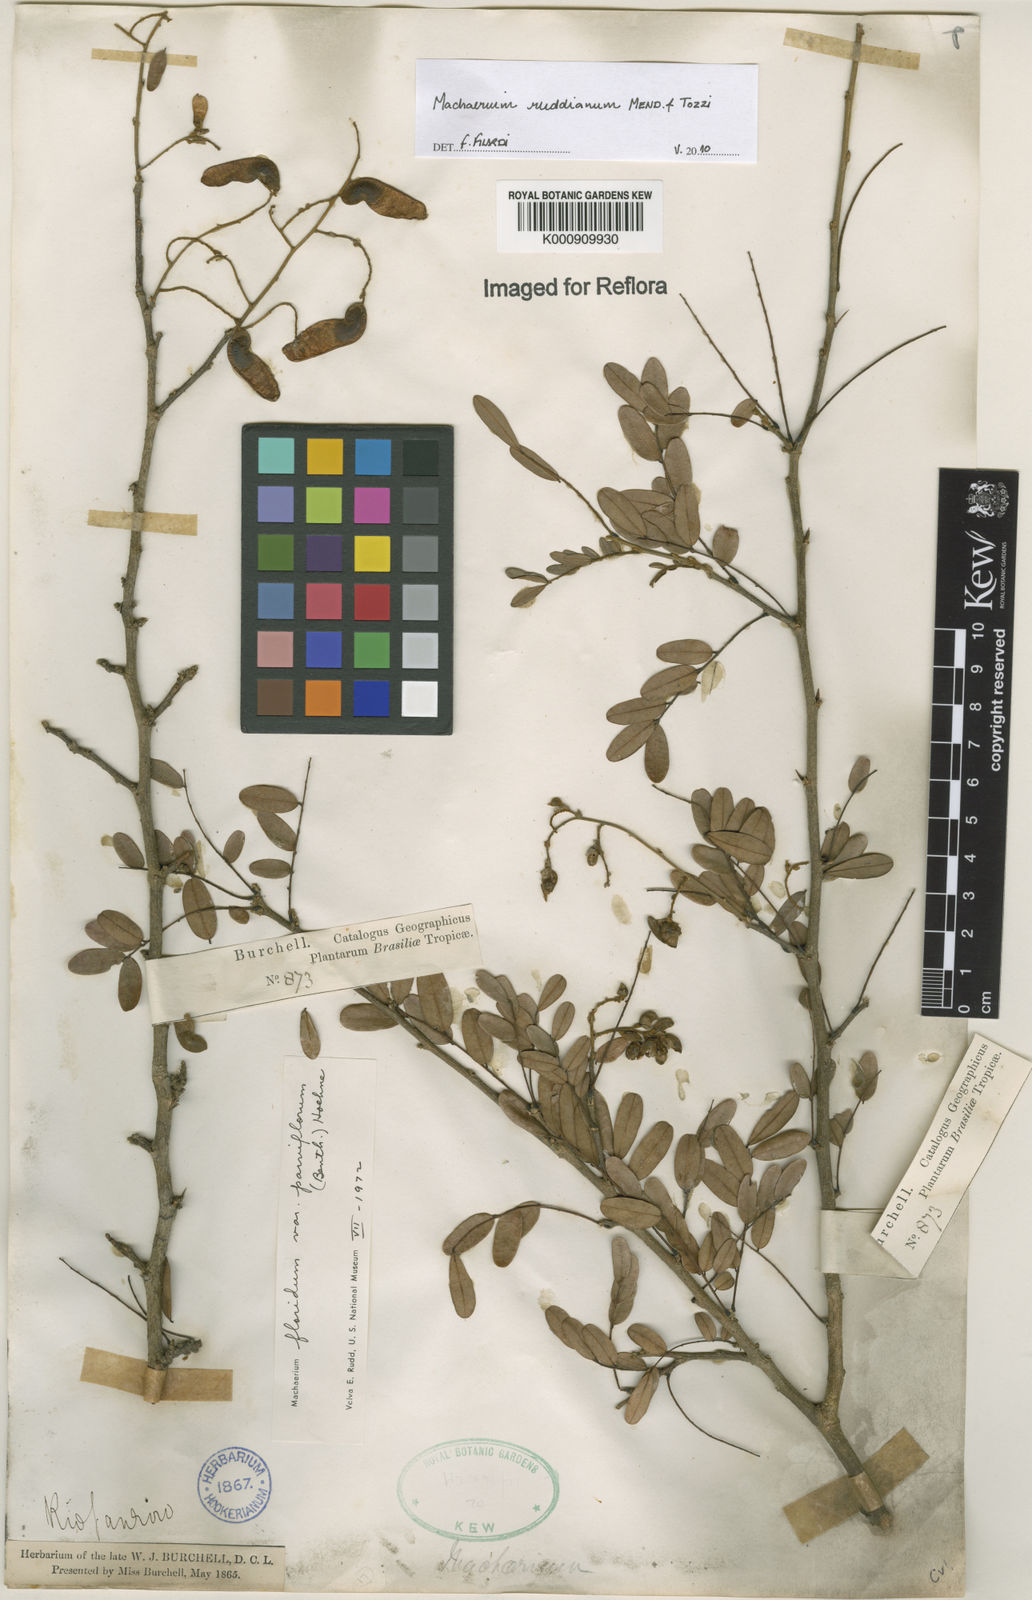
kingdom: Plantae
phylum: Tracheophyta
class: Magnoliopsida
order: Fabales
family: Fabaceae
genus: Machaerium
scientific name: Machaerium
